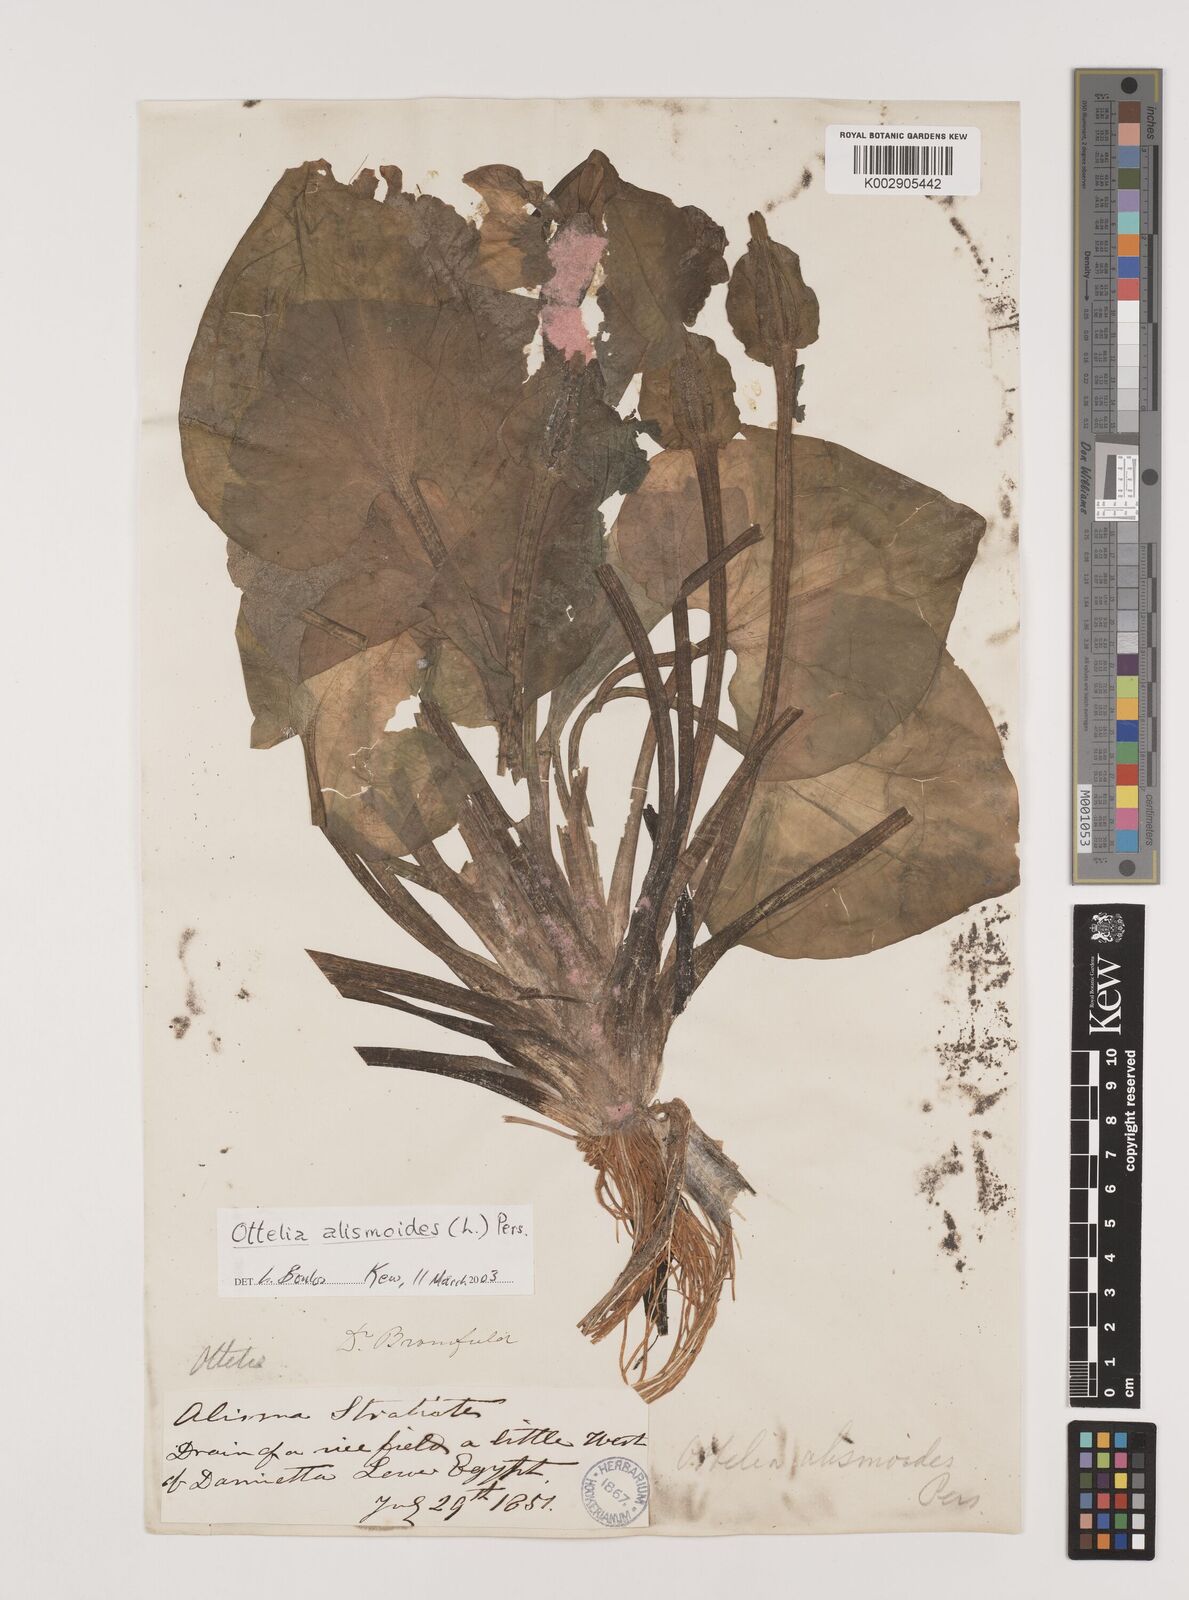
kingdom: Plantae
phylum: Tracheophyta
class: Liliopsida
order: Alismatales
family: Hydrocharitaceae
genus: Ottelia
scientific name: Ottelia alismoides
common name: Duck-lettuce
